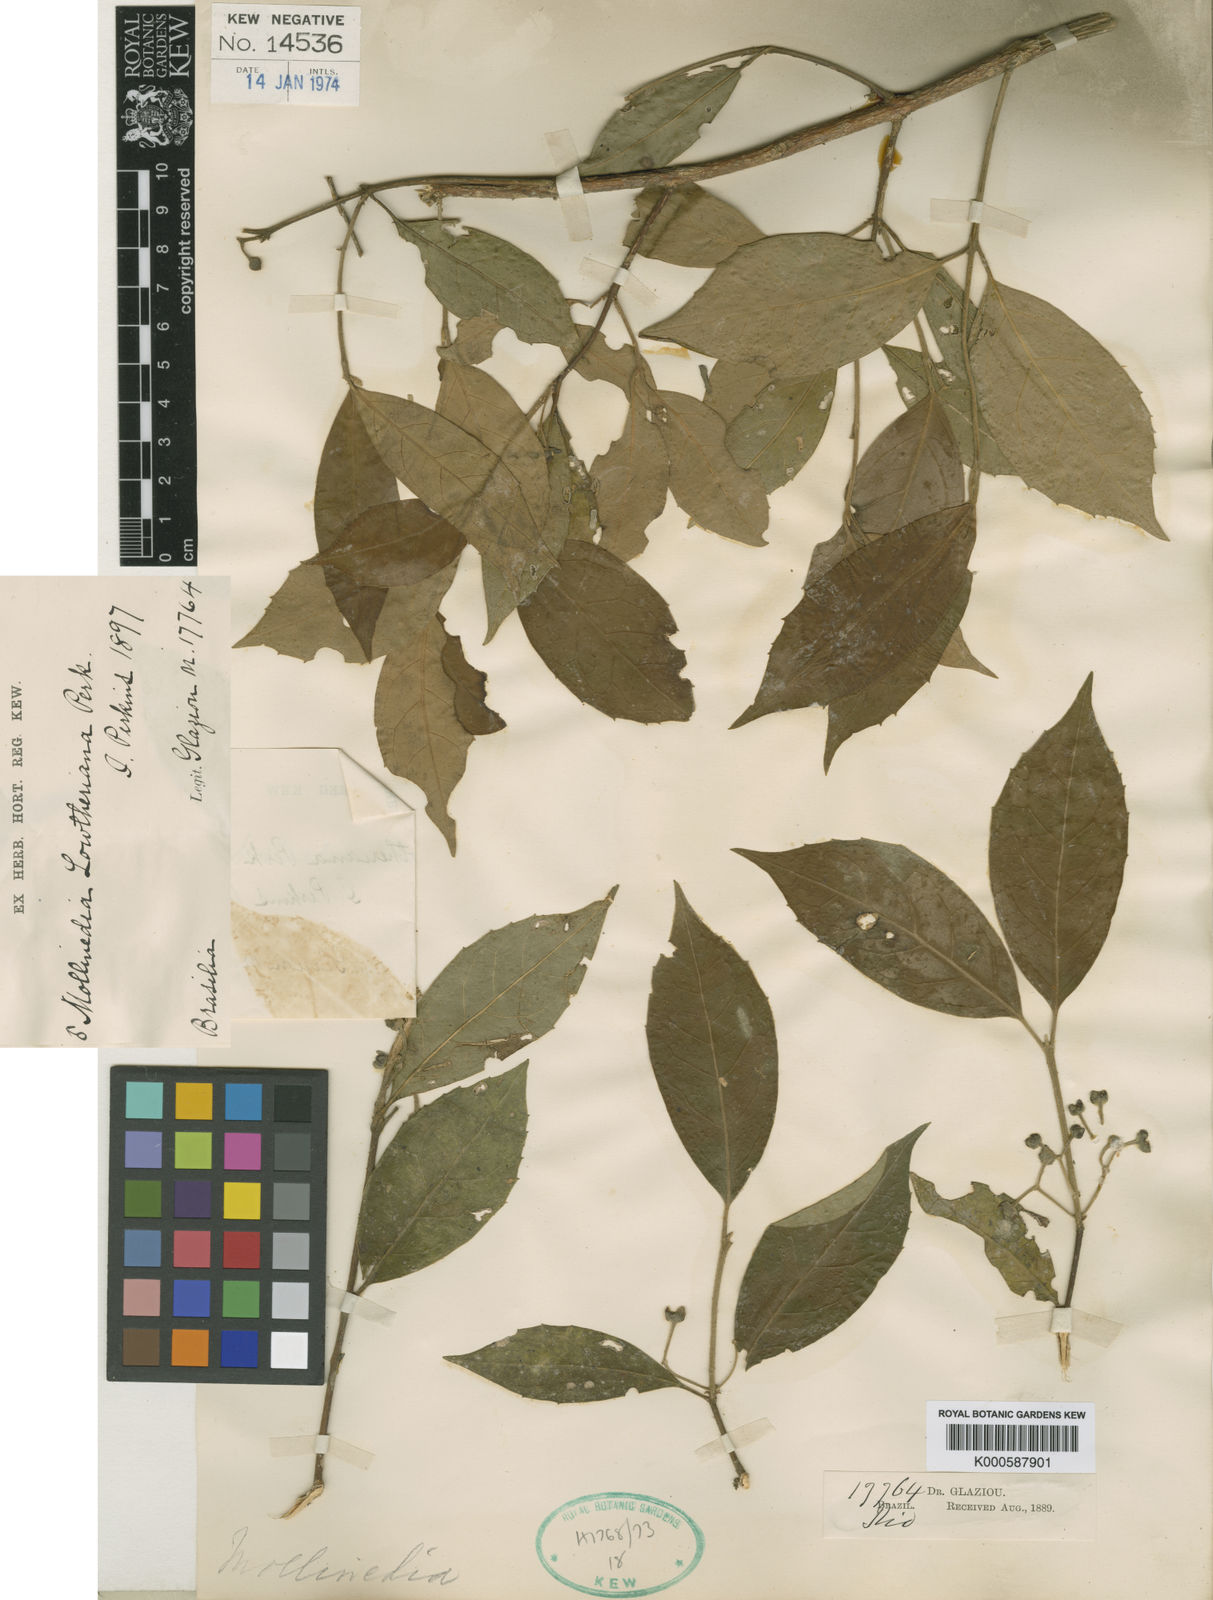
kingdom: Plantae
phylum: Tracheophyta
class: Magnoliopsida
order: Laurales
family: Monimiaceae
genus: Mollinedia
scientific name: Mollinedia lowtheriana
